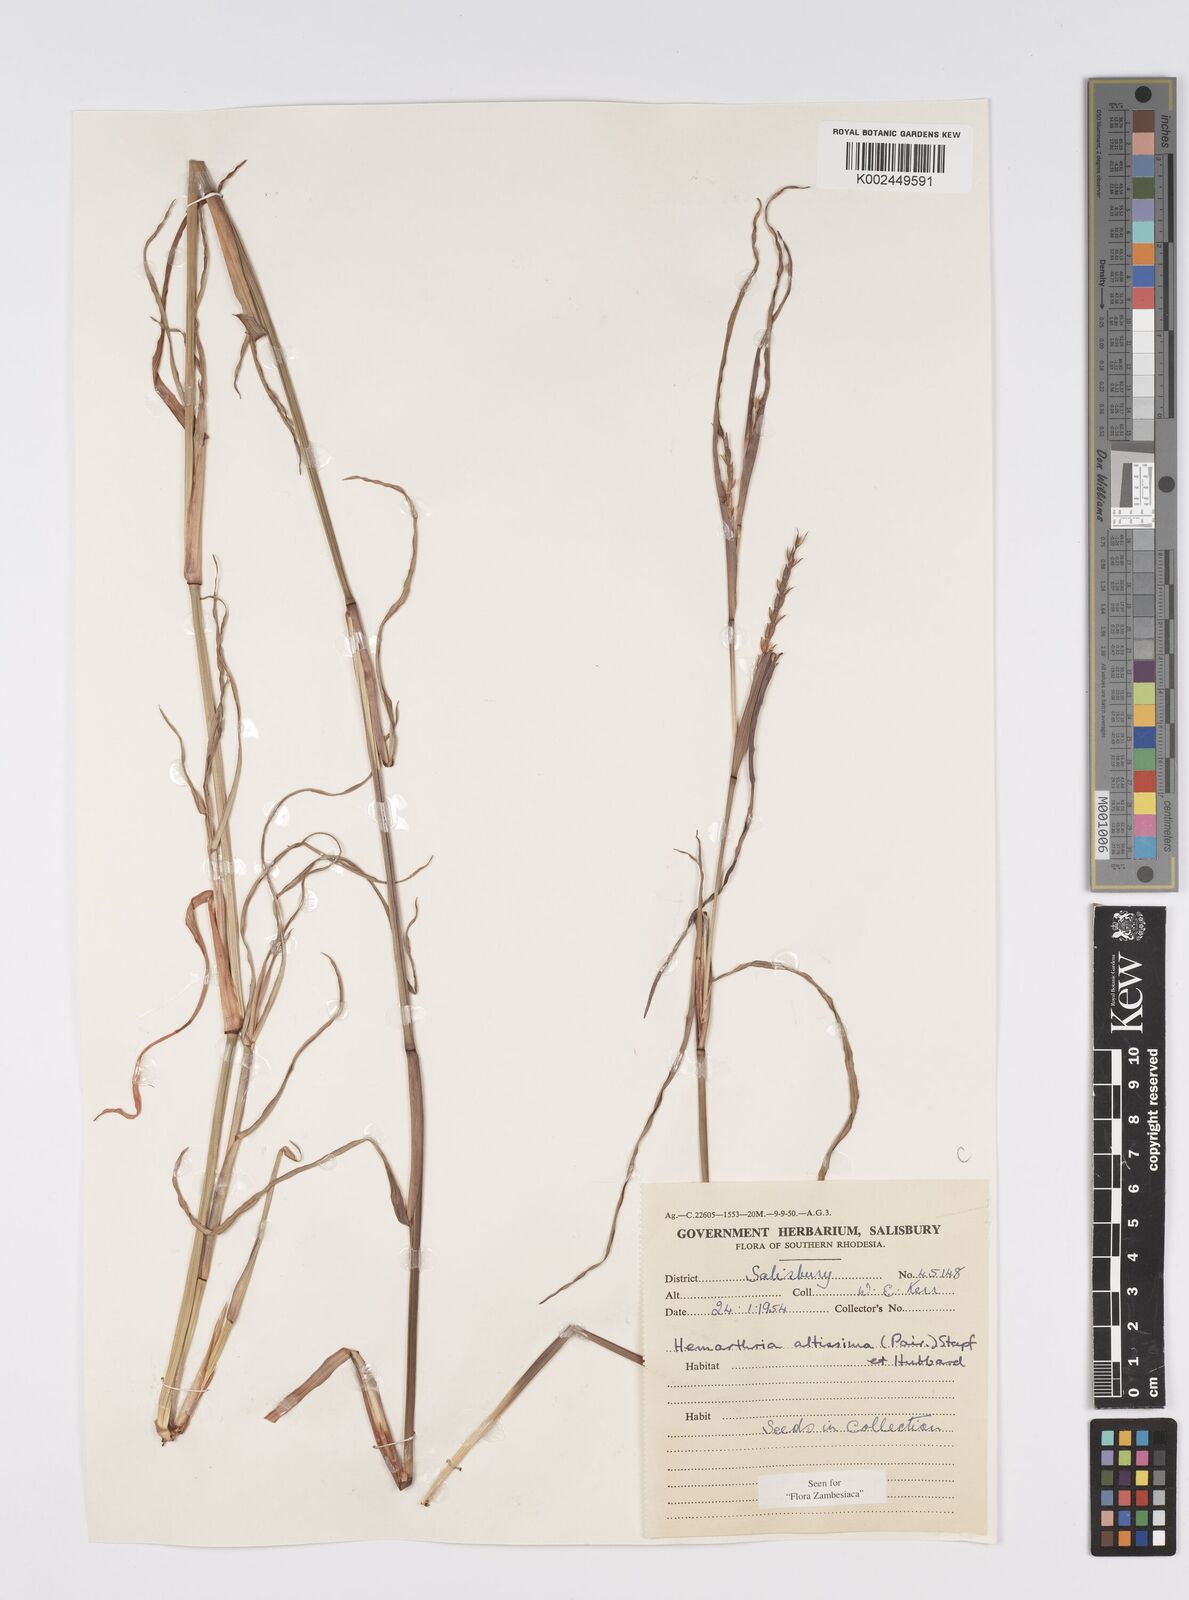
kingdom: Plantae
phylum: Tracheophyta
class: Liliopsida
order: Poales
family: Poaceae
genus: Hemarthria
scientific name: Hemarthria altissima
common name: African jointgrass
